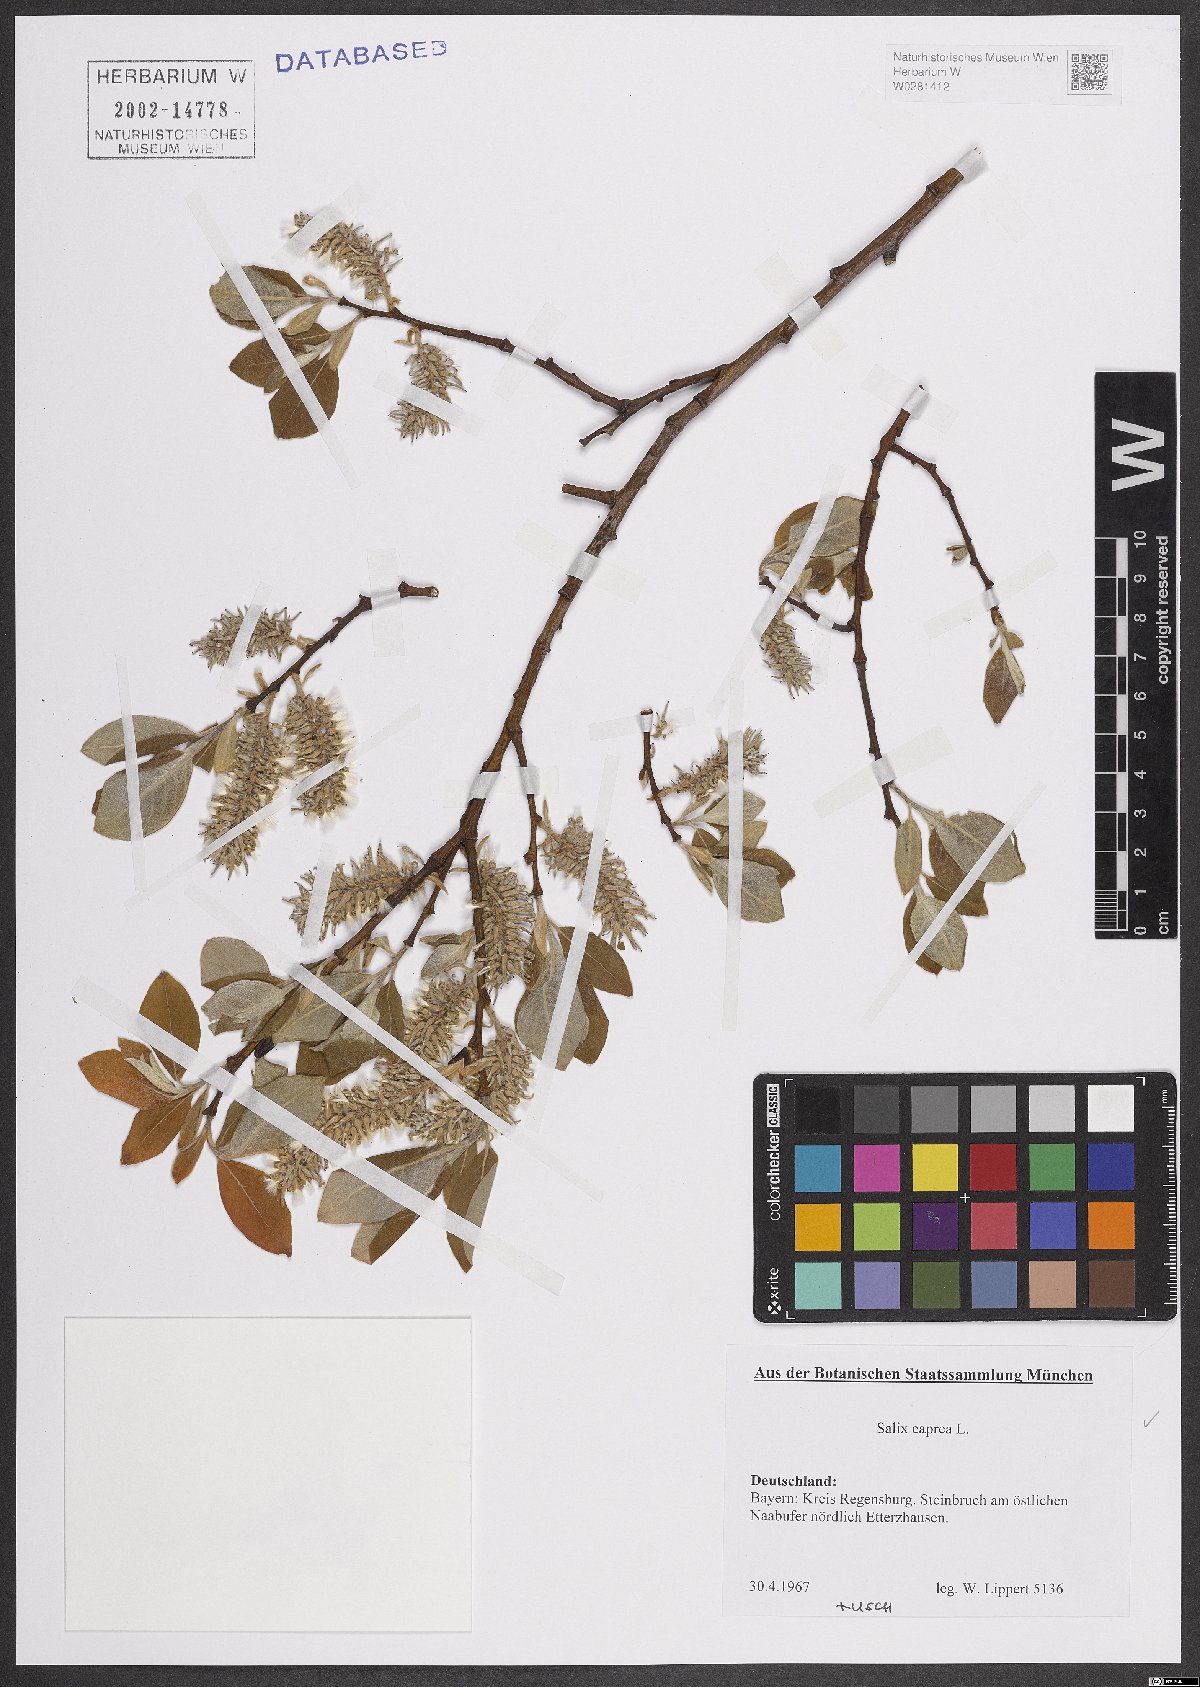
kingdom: Plantae
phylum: Tracheophyta
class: Magnoliopsida
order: Malpighiales
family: Salicaceae
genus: Salix
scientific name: Salix caprea
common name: Goat willow
